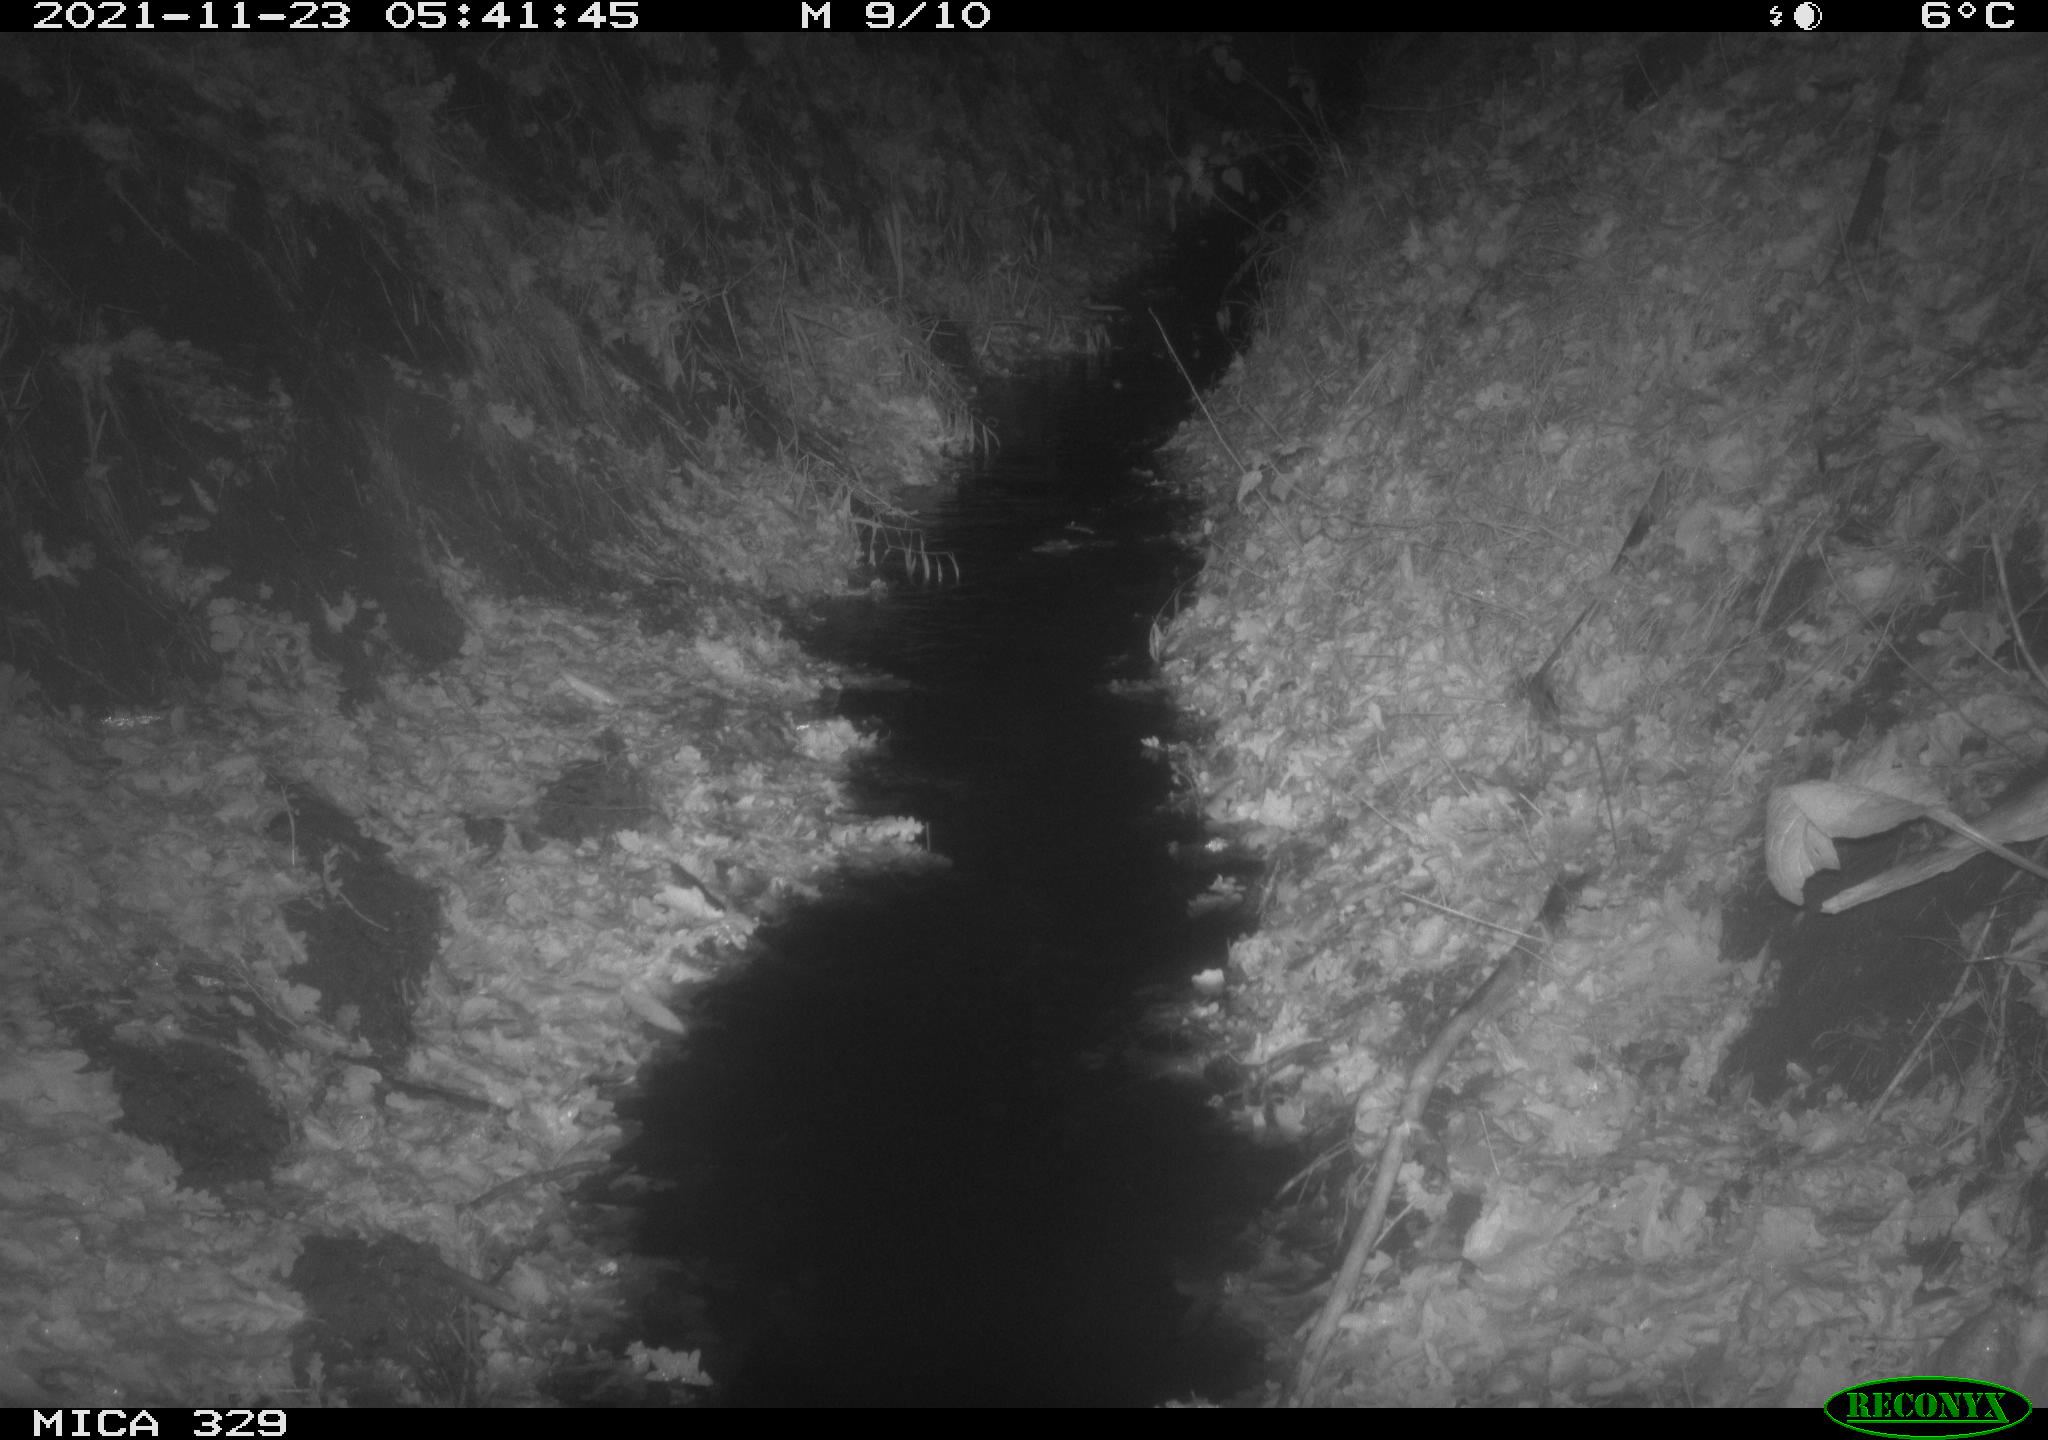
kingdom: Animalia
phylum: Chordata
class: Mammalia
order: Rodentia
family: Muridae
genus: Rattus
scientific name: Rattus norvegicus
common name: Brown rat
